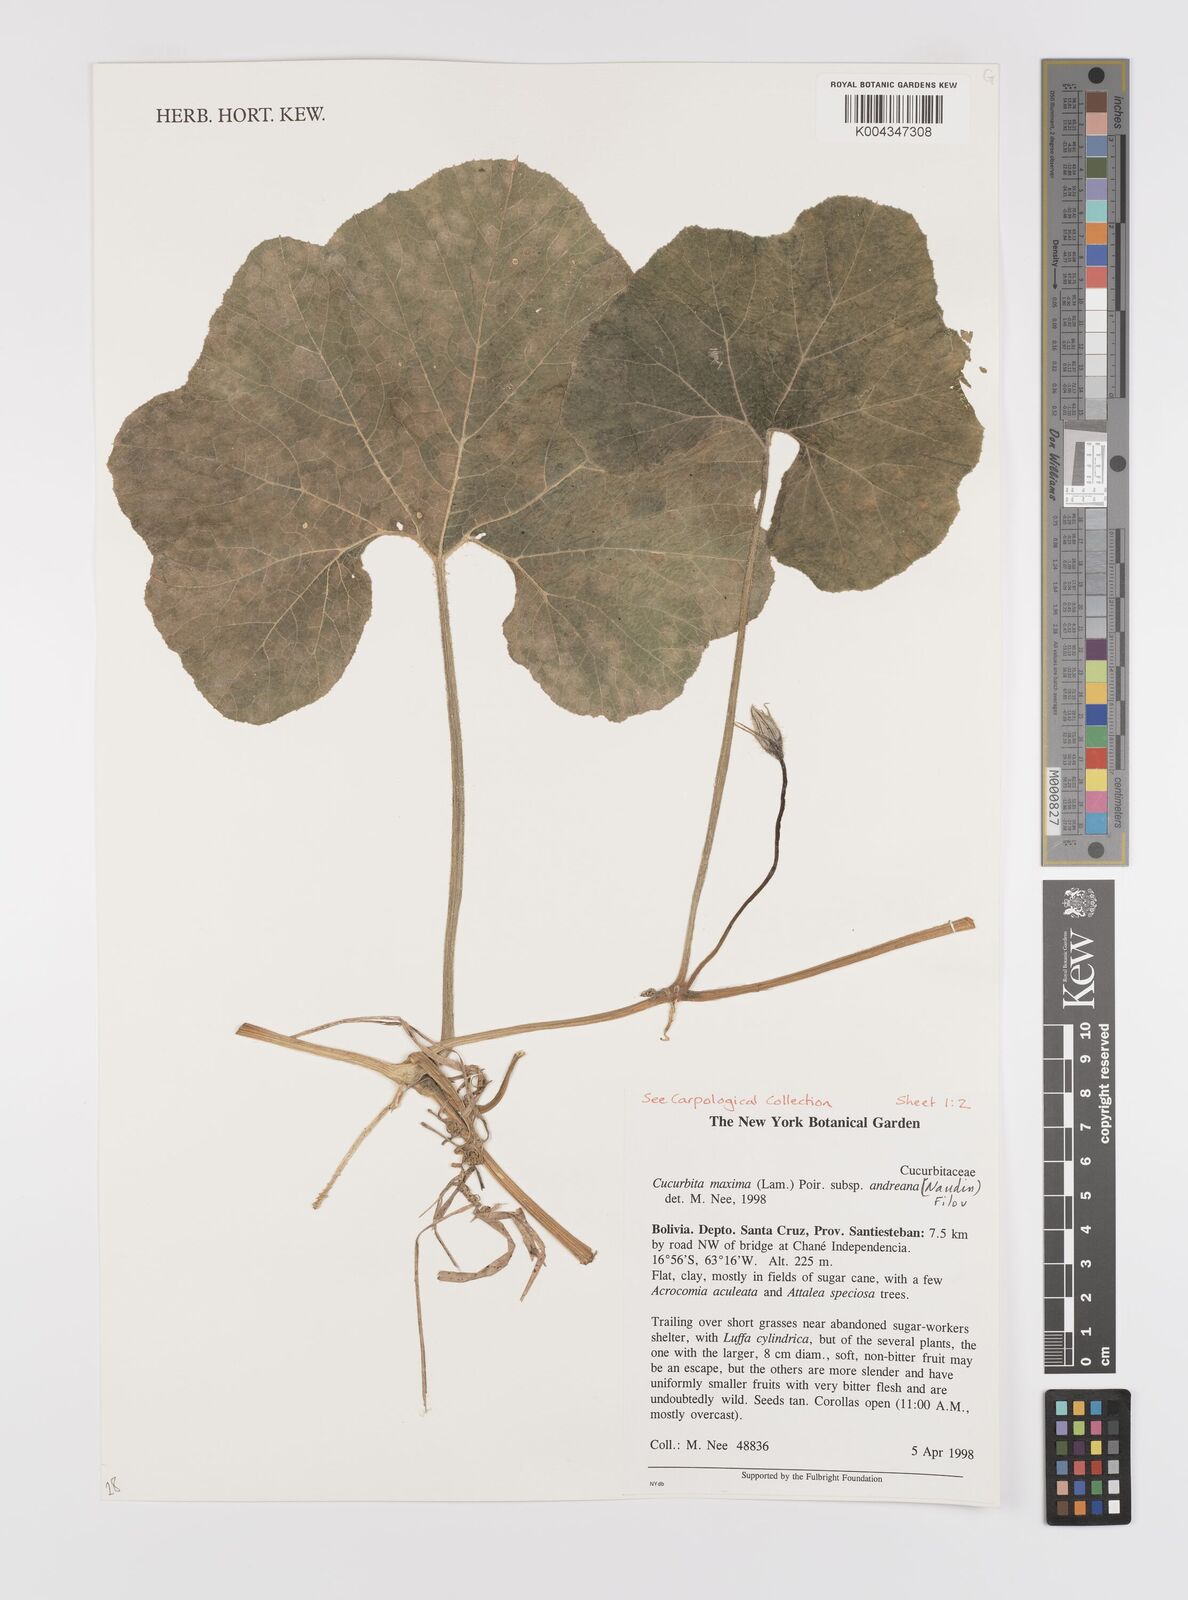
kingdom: Plantae
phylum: Tracheophyta
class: Magnoliopsida
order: Cucurbitales
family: Cucurbitaceae
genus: Cucurbita
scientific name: Cucurbita maxima
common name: Pumpkin
